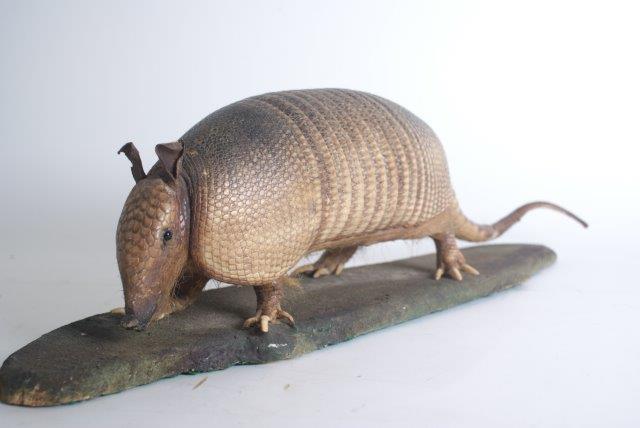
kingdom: Animalia
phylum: Chordata
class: Mammalia
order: Cingulata
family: Dasypodidae
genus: Dasypus
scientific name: Dasypus novemcinctus
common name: Nine-banded Armadillo
